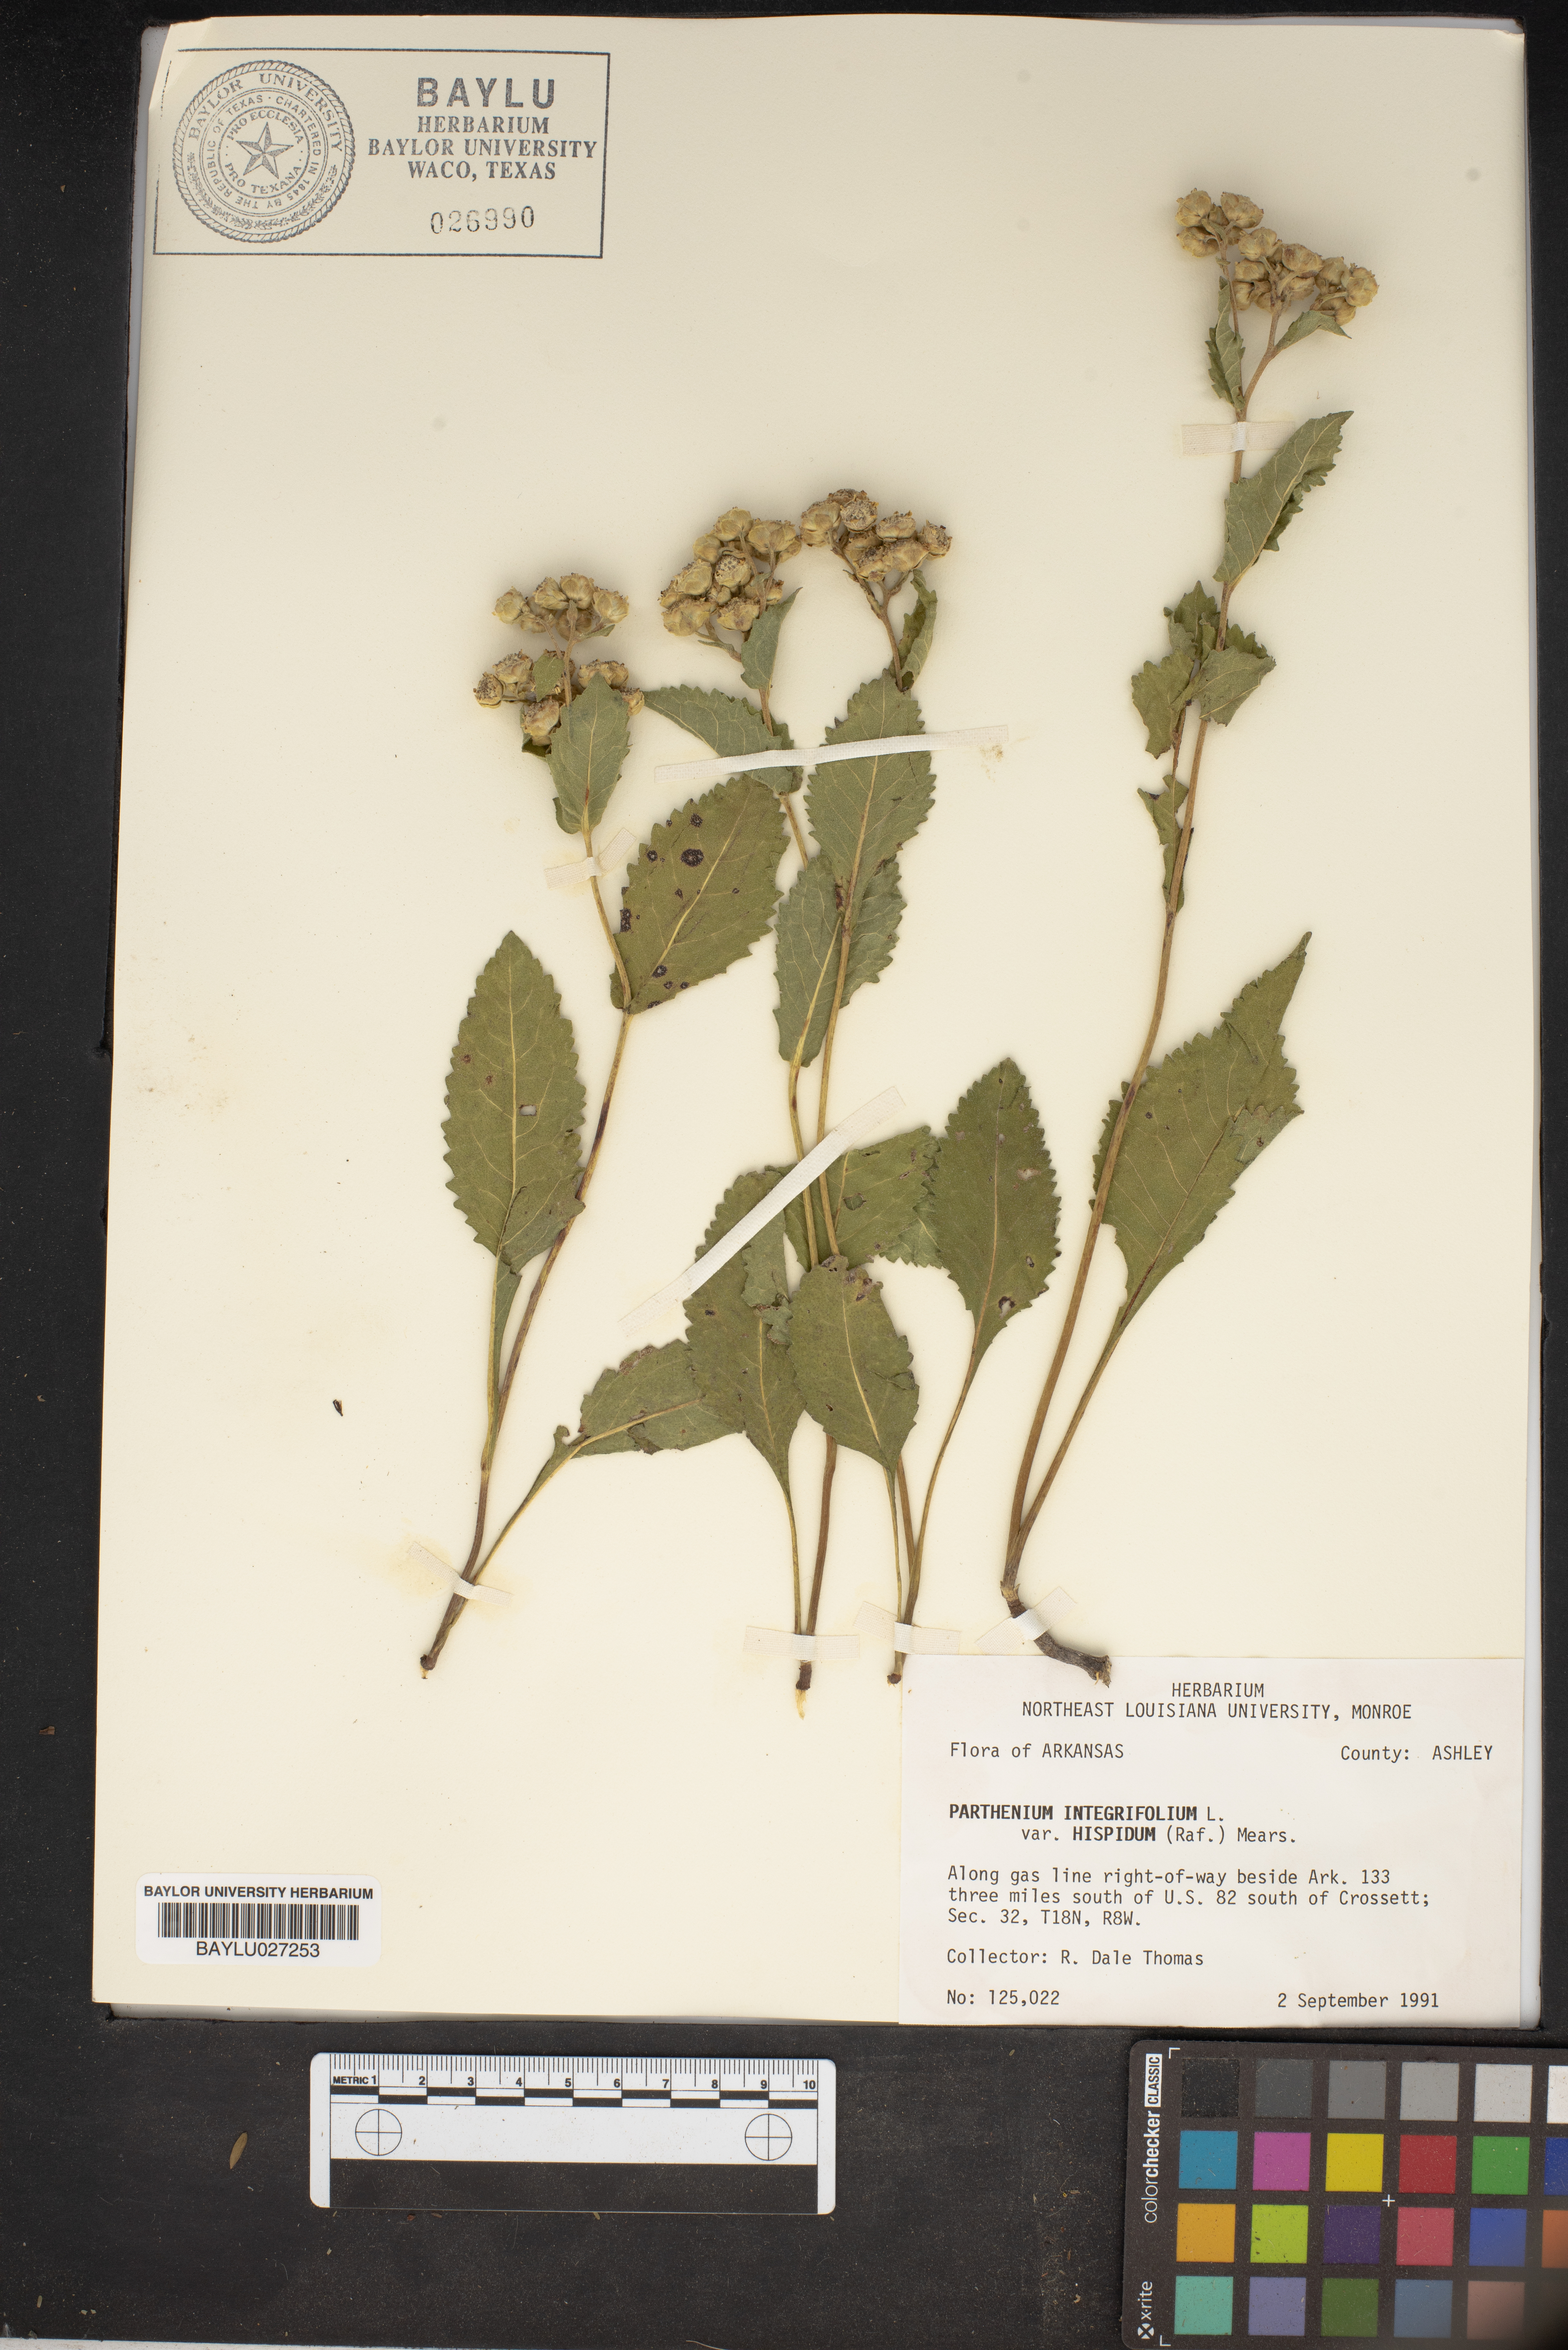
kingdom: Plantae
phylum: Tracheophyta
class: Magnoliopsida
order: Asterales
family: Asteraceae
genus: Parthenium
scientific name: Parthenium integrifolium
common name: American feverfew
